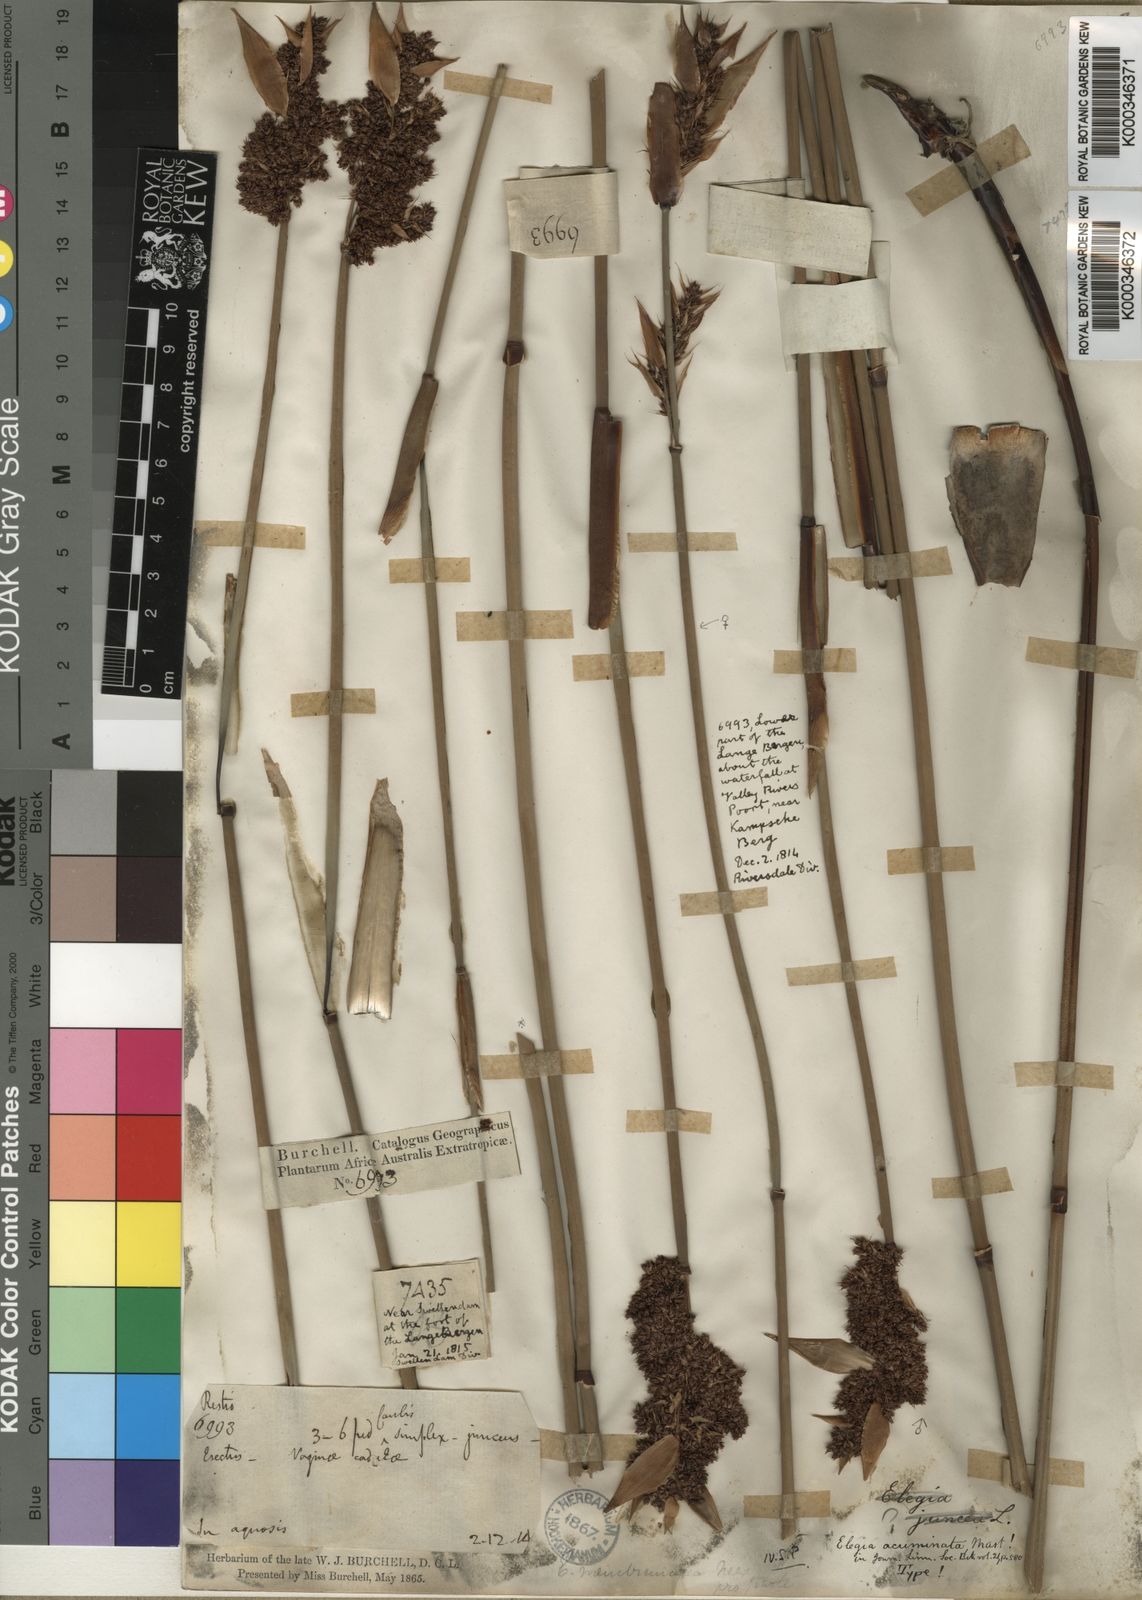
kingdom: Plantae
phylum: Tracheophyta
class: Liliopsida
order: Poales
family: Restionaceae
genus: Elegia
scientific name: Elegia thyrsifera
